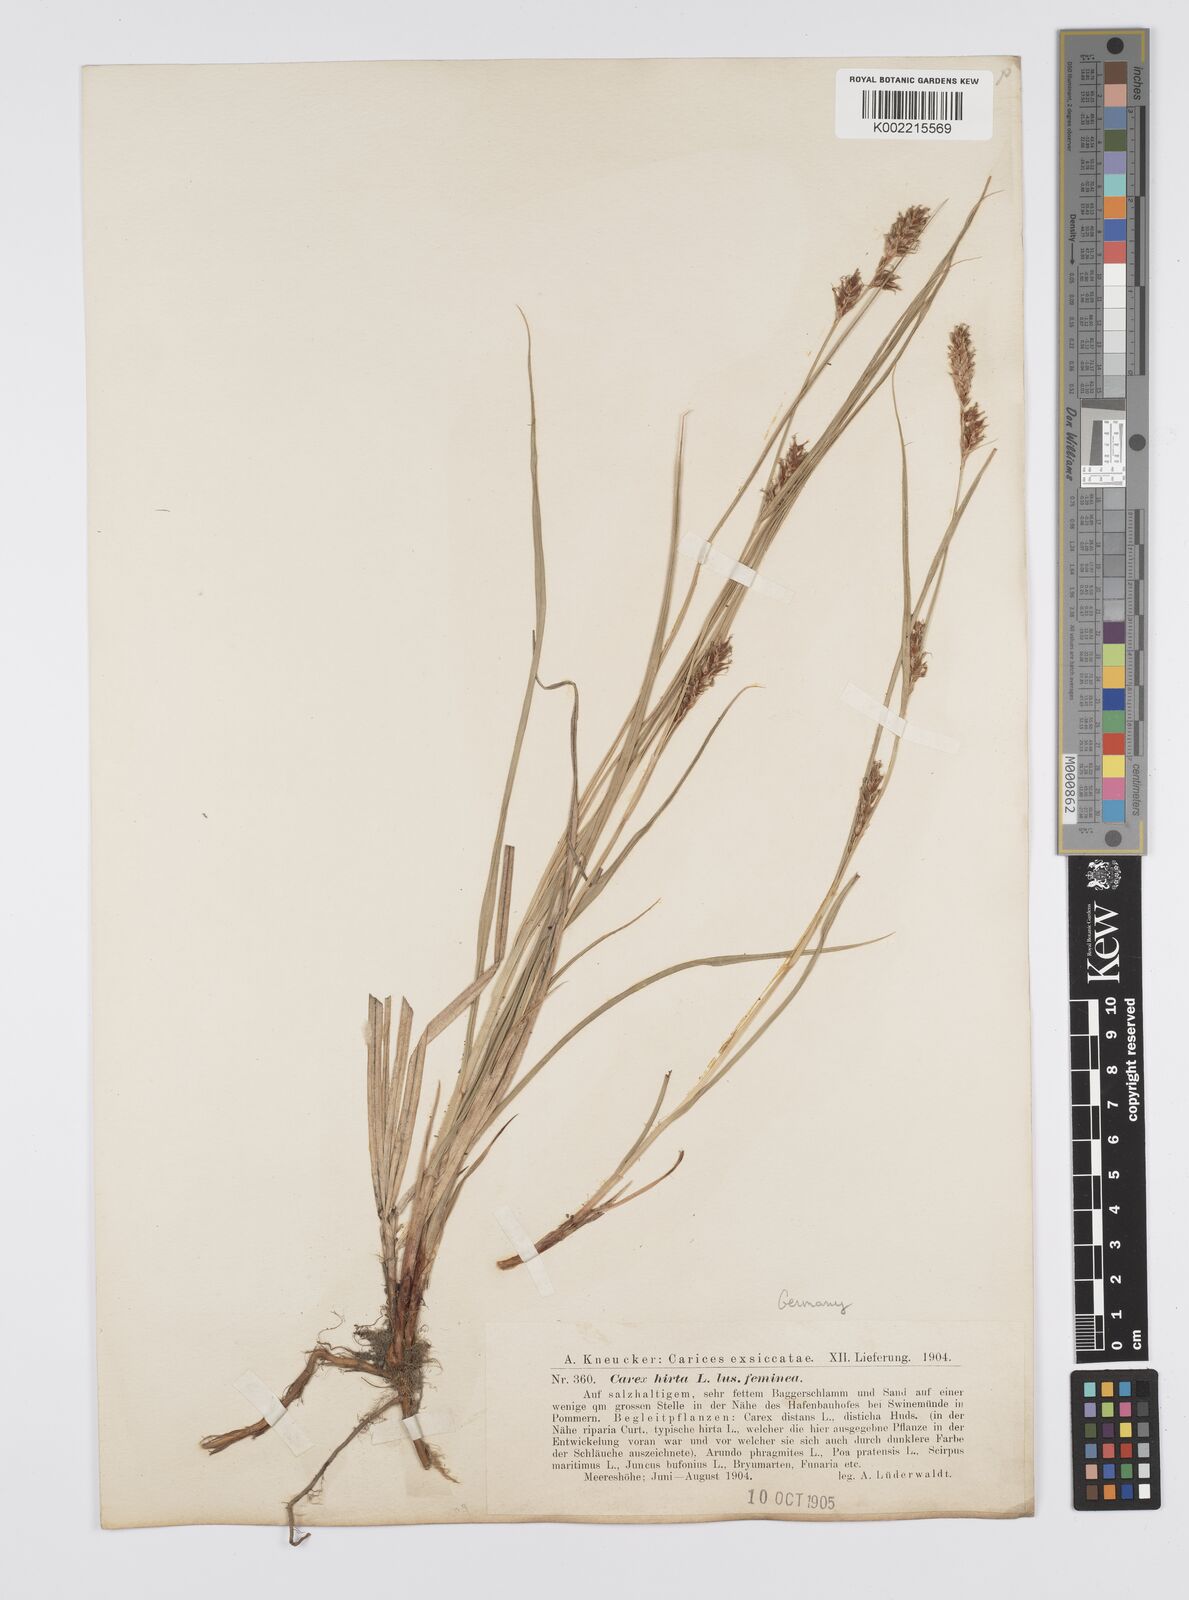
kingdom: Plantae
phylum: Tracheophyta
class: Liliopsida
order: Poales
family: Cyperaceae
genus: Carex
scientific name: Carex hirta
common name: Hairy sedge
